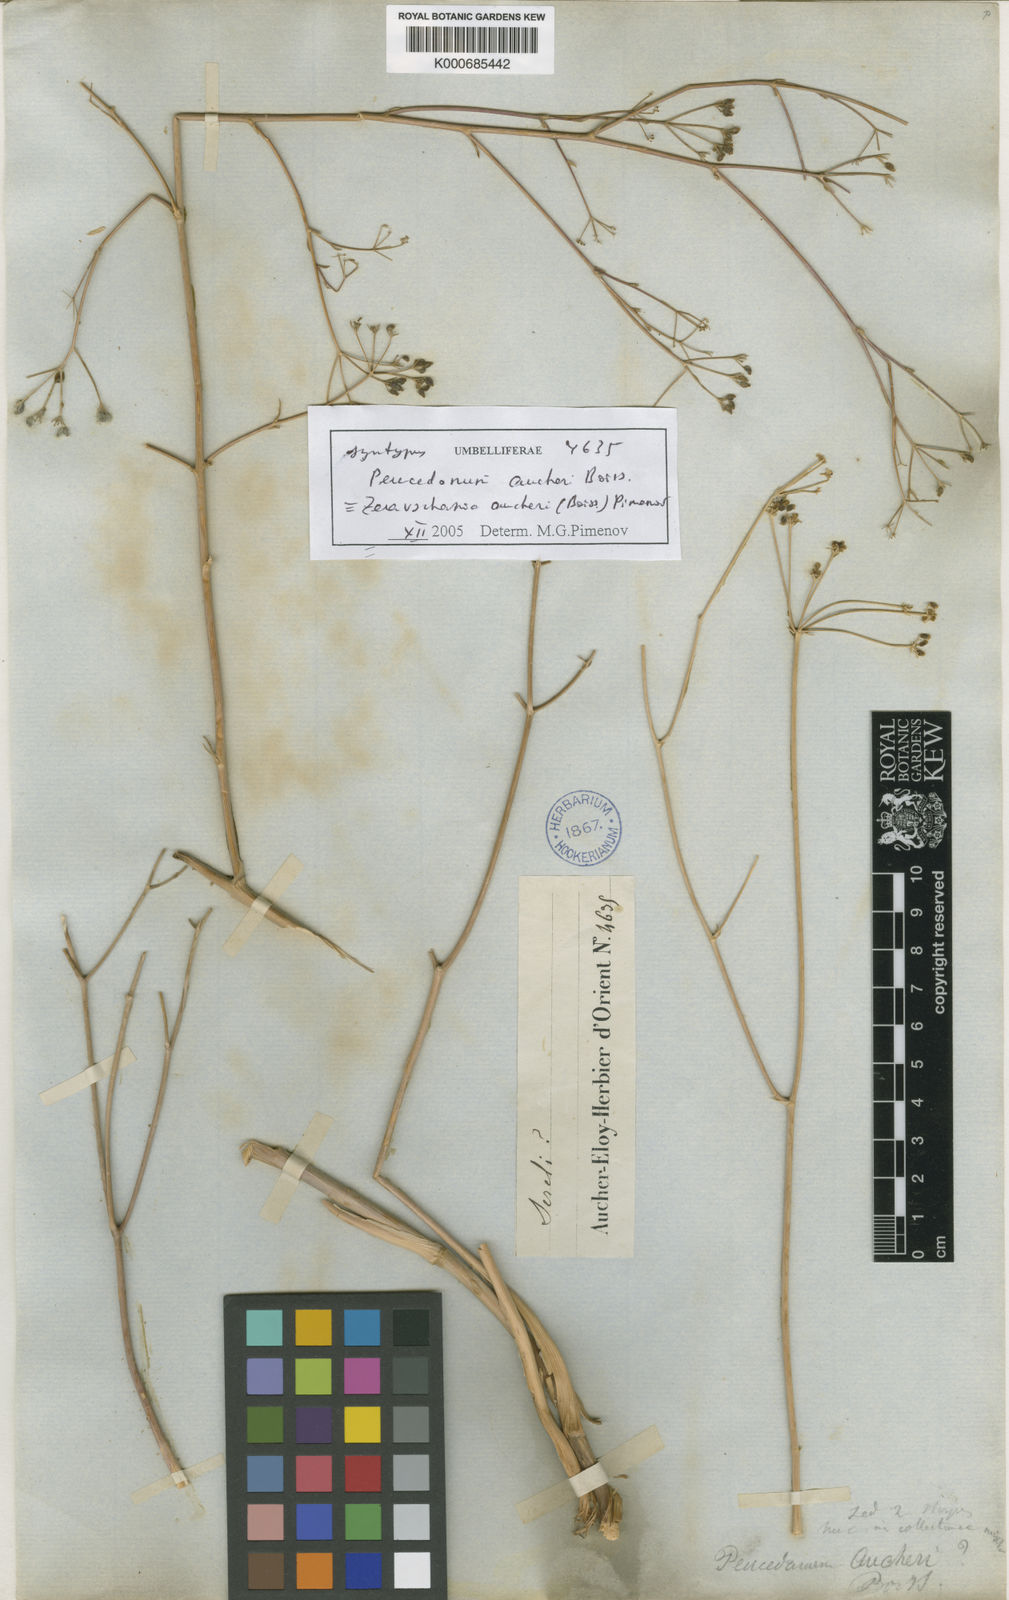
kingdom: Plantae
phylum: Tracheophyta
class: Magnoliopsida
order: Apiales
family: Apiaceae
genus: Zeravschania
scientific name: Zeravschania aucheri
